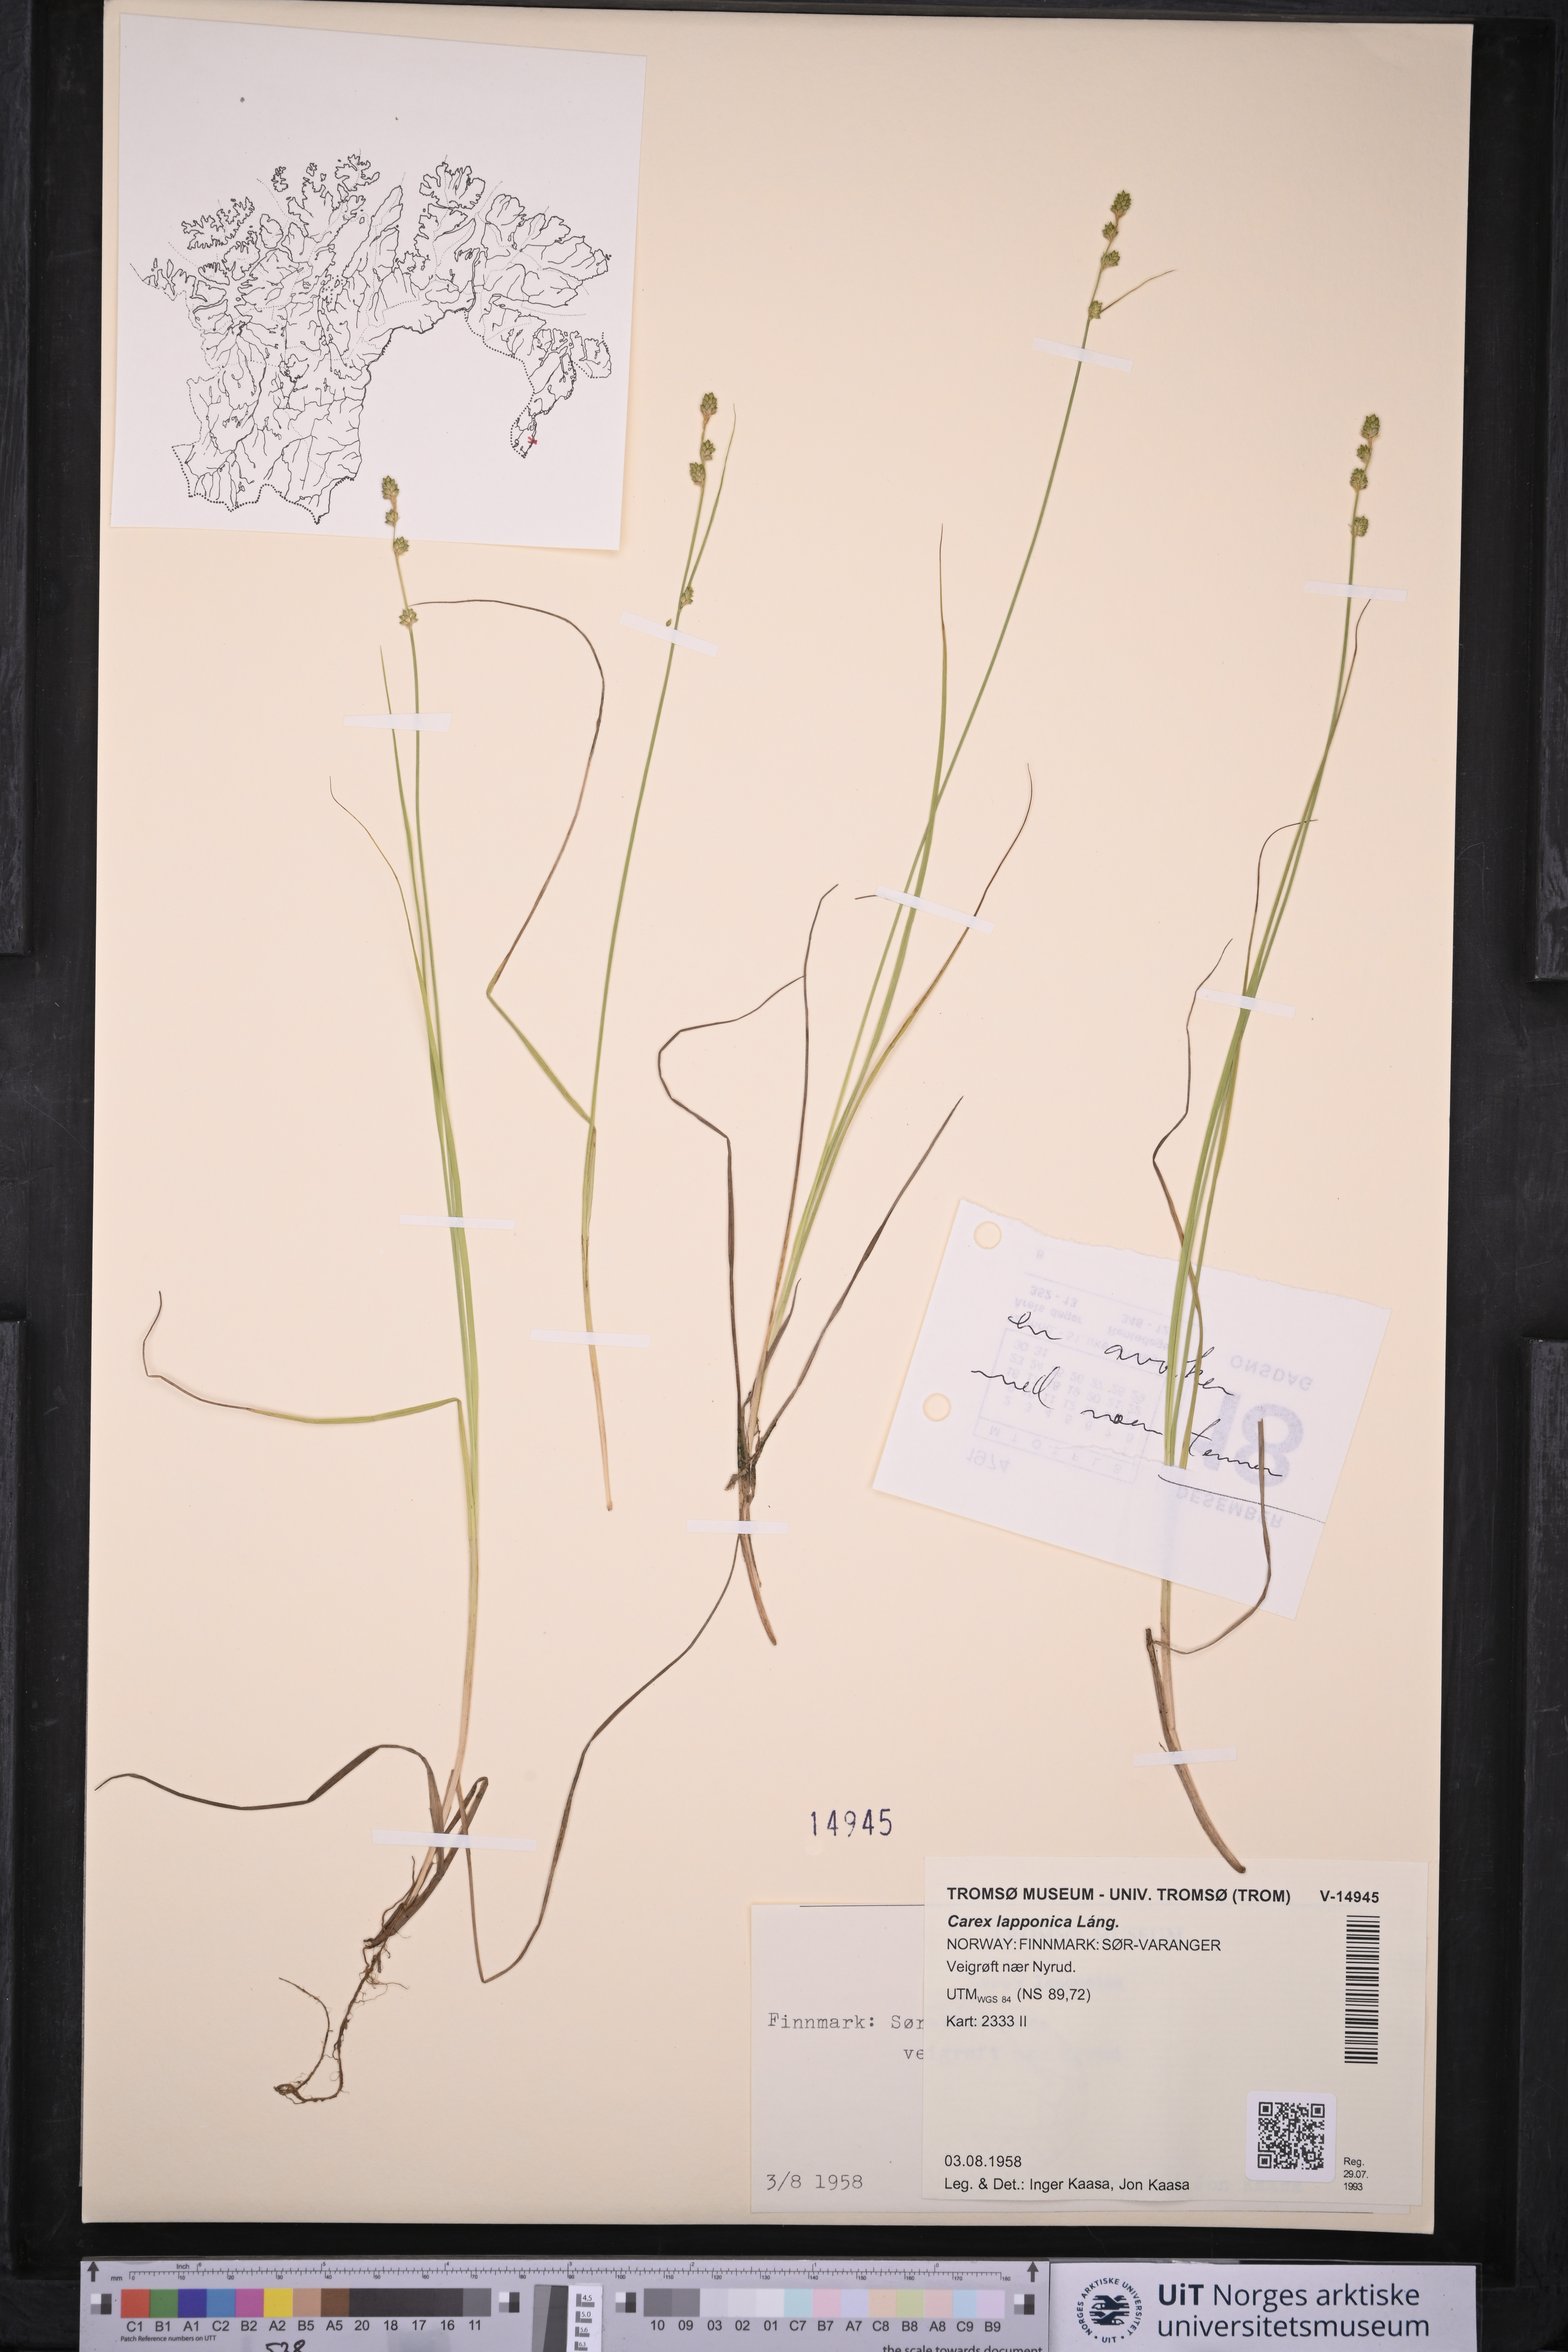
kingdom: Plantae
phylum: Tracheophyta
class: Liliopsida
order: Poales
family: Cyperaceae
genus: Carex
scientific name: Carex lapponica
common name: Lapland sedge
